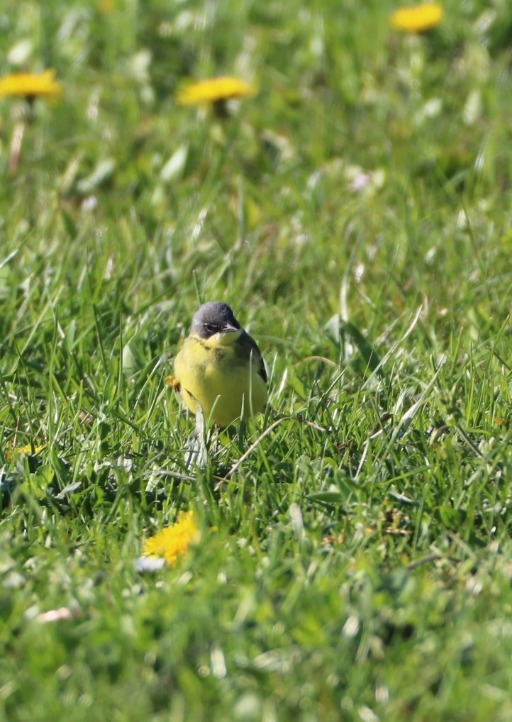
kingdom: Animalia
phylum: Chordata
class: Aves
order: Passeriformes
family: Motacillidae
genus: Motacilla
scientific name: Motacilla flava
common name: Gul vipstjert
